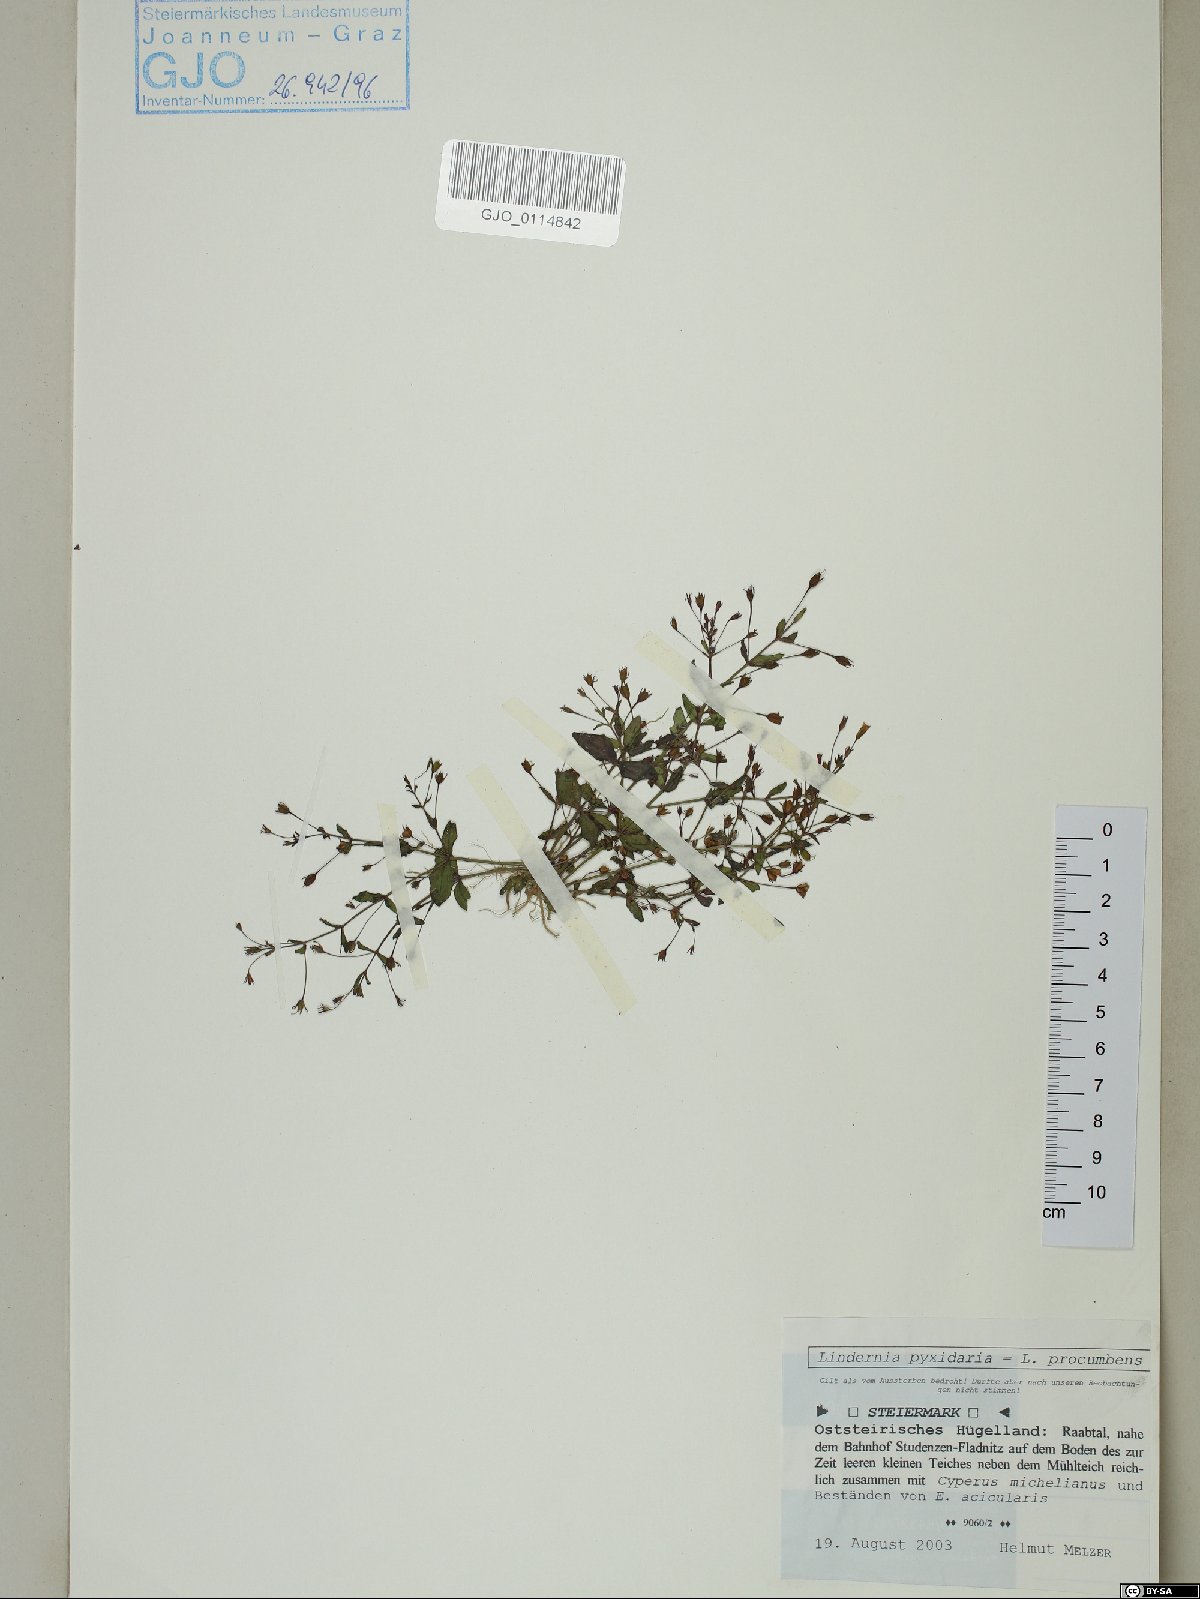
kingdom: Plantae
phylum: Tracheophyta
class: Magnoliopsida
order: Lamiales
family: Linderniaceae
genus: Lindernia
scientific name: Lindernia procumbens
